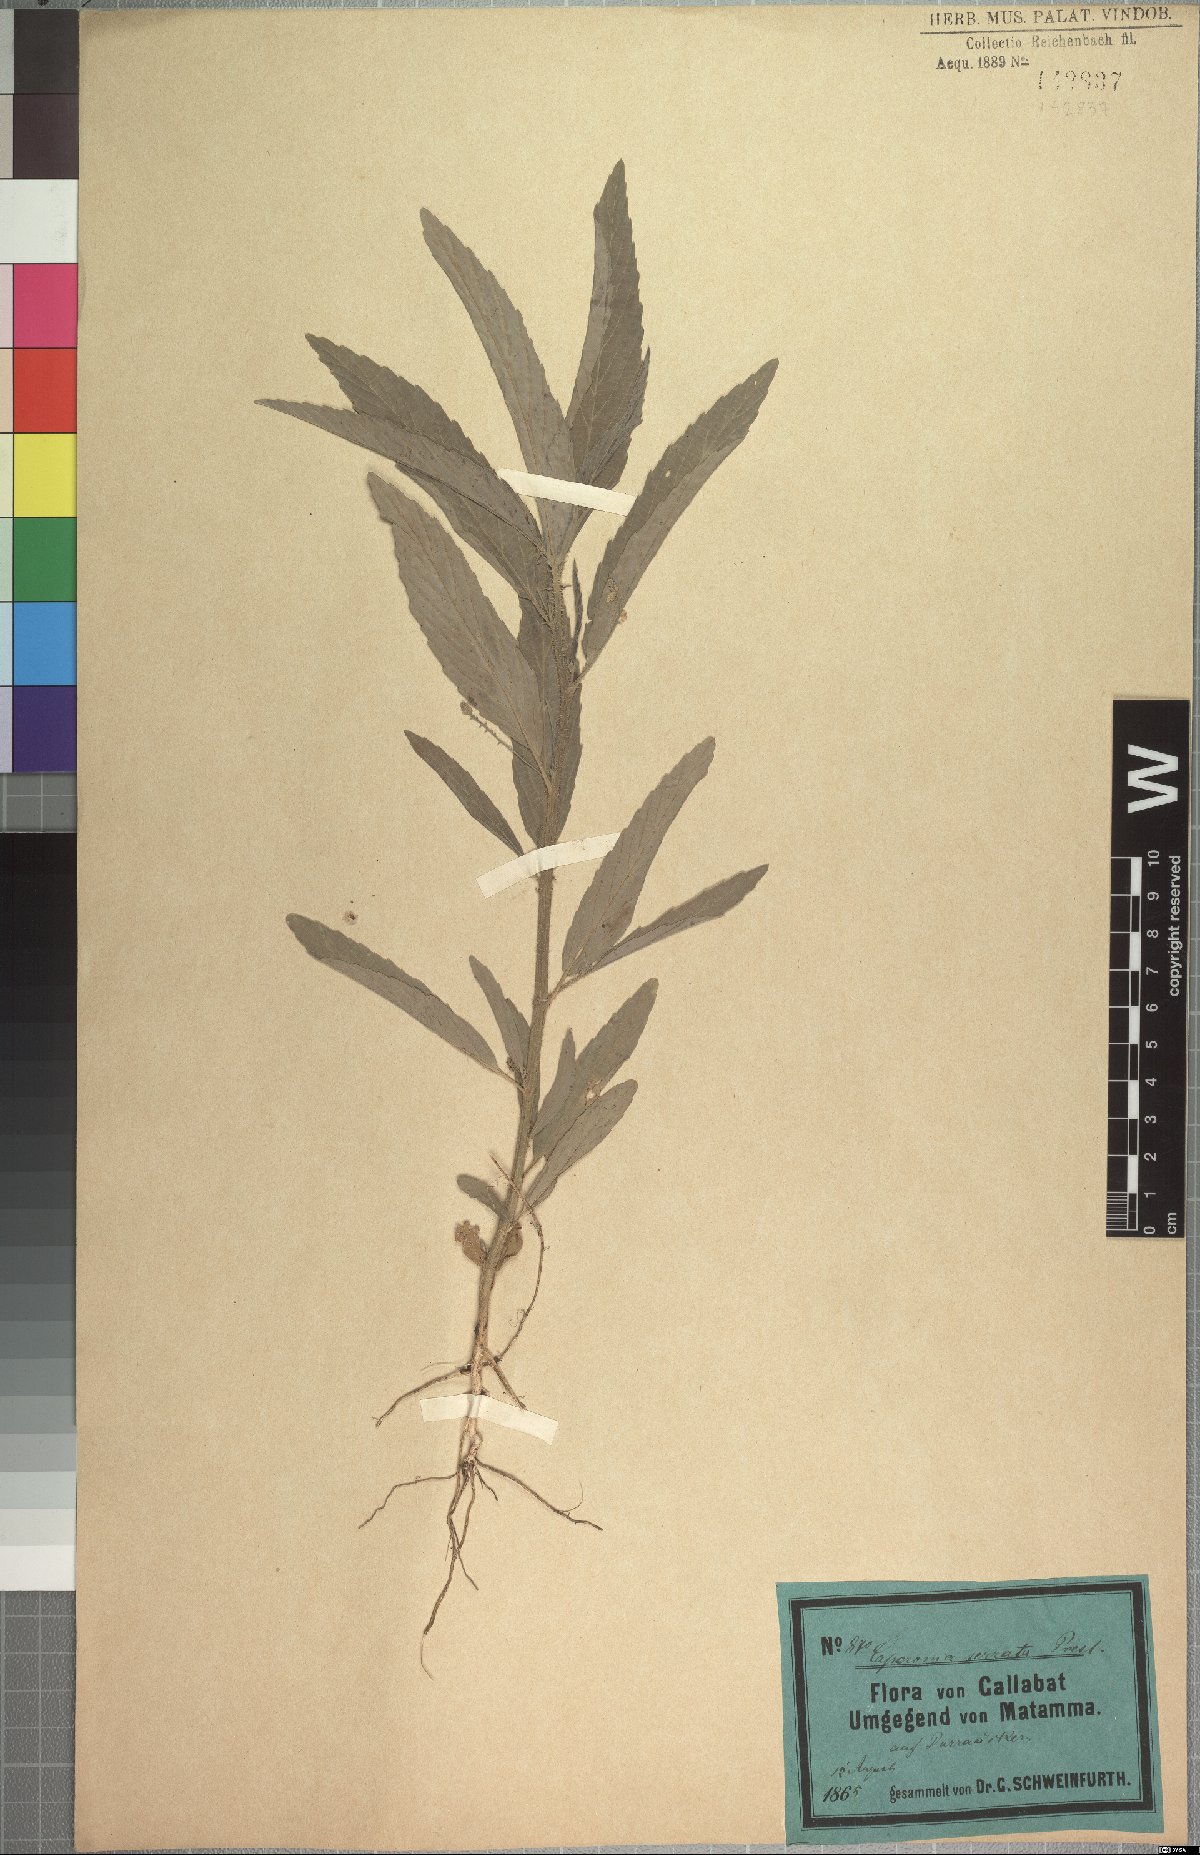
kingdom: Plantae
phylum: Tracheophyta
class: Magnoliopsida
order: Malpighiales
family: Euphorbiaceae
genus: Caperonia
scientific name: Caperonia serrata
